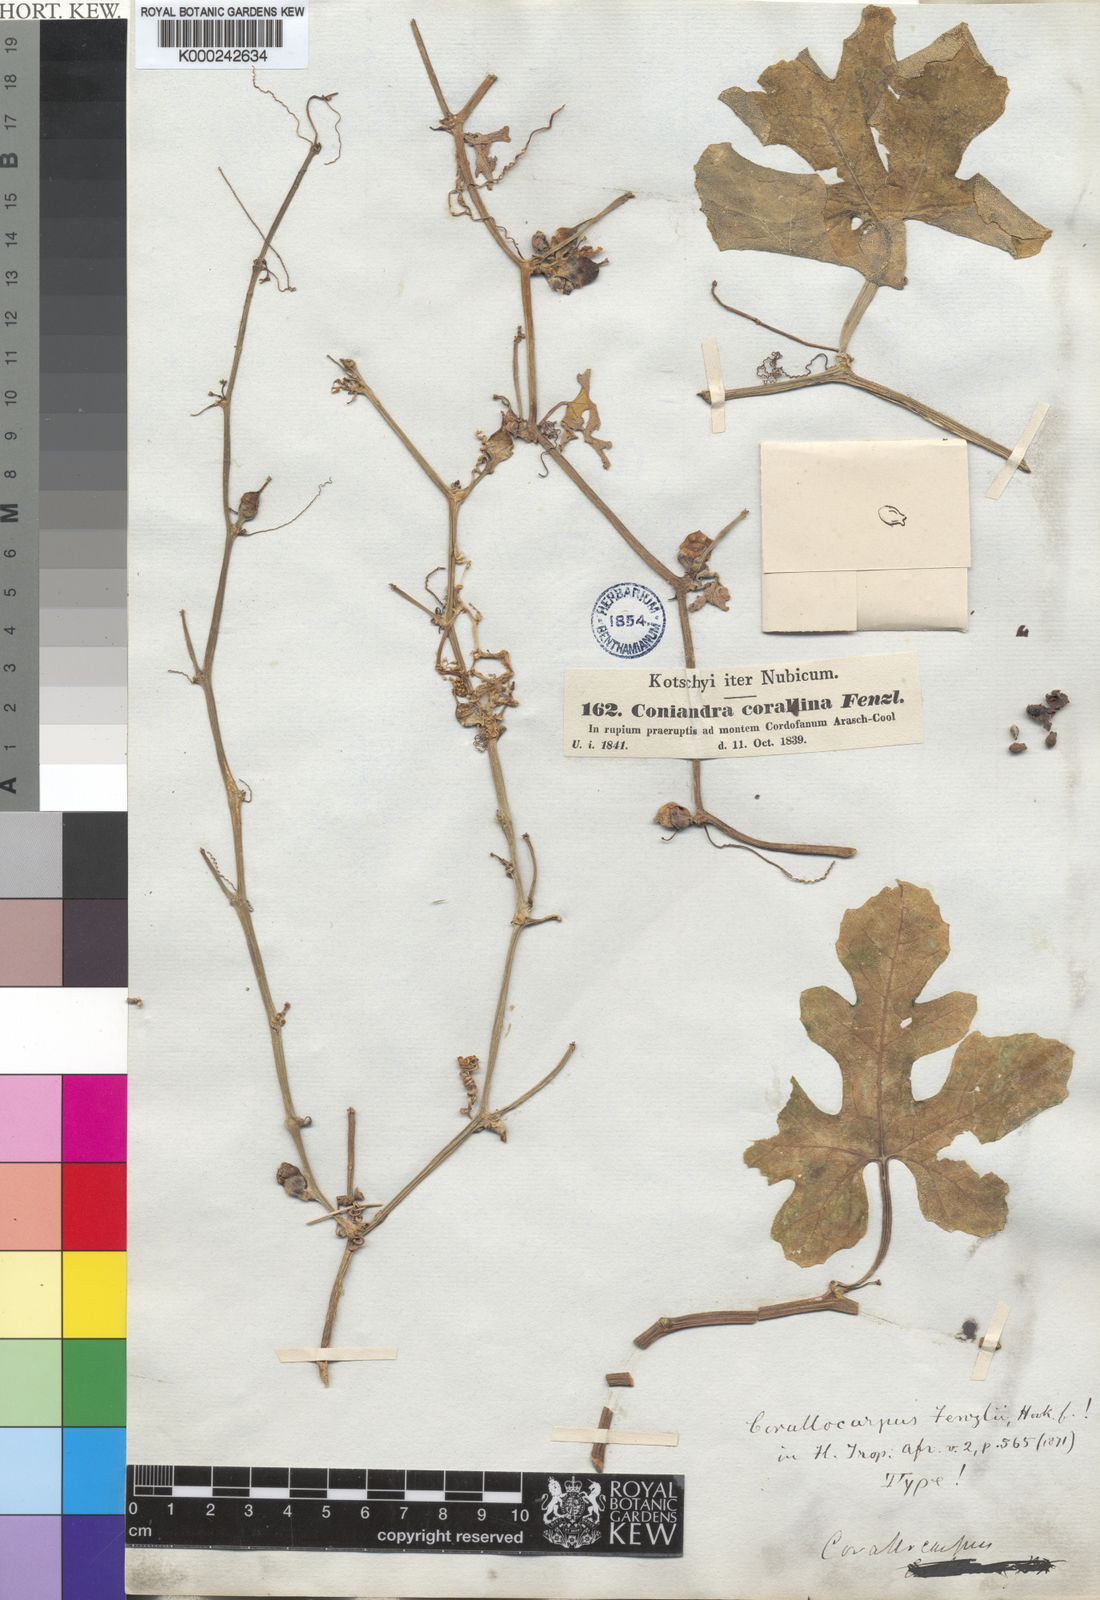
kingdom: Plantae
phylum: Tracheophyta
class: Magnoliopsida
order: Cucurbitales
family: Cucurbitaceae
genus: Corallocarpus
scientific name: Corallocarpus epigaeus
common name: Indian bryonia
